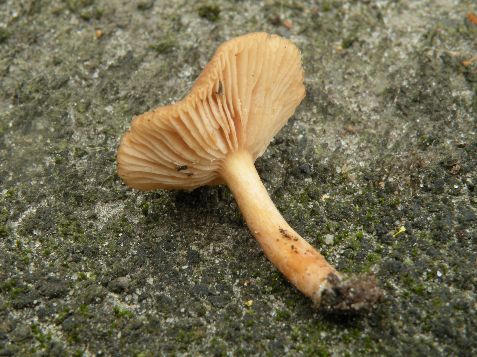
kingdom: Fungi
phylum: Basidiomycota
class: Agaricomycetes
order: Russulales
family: Russulaceae
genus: Lactarius
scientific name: Lactarius obscuratus
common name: elle-mælkehat
